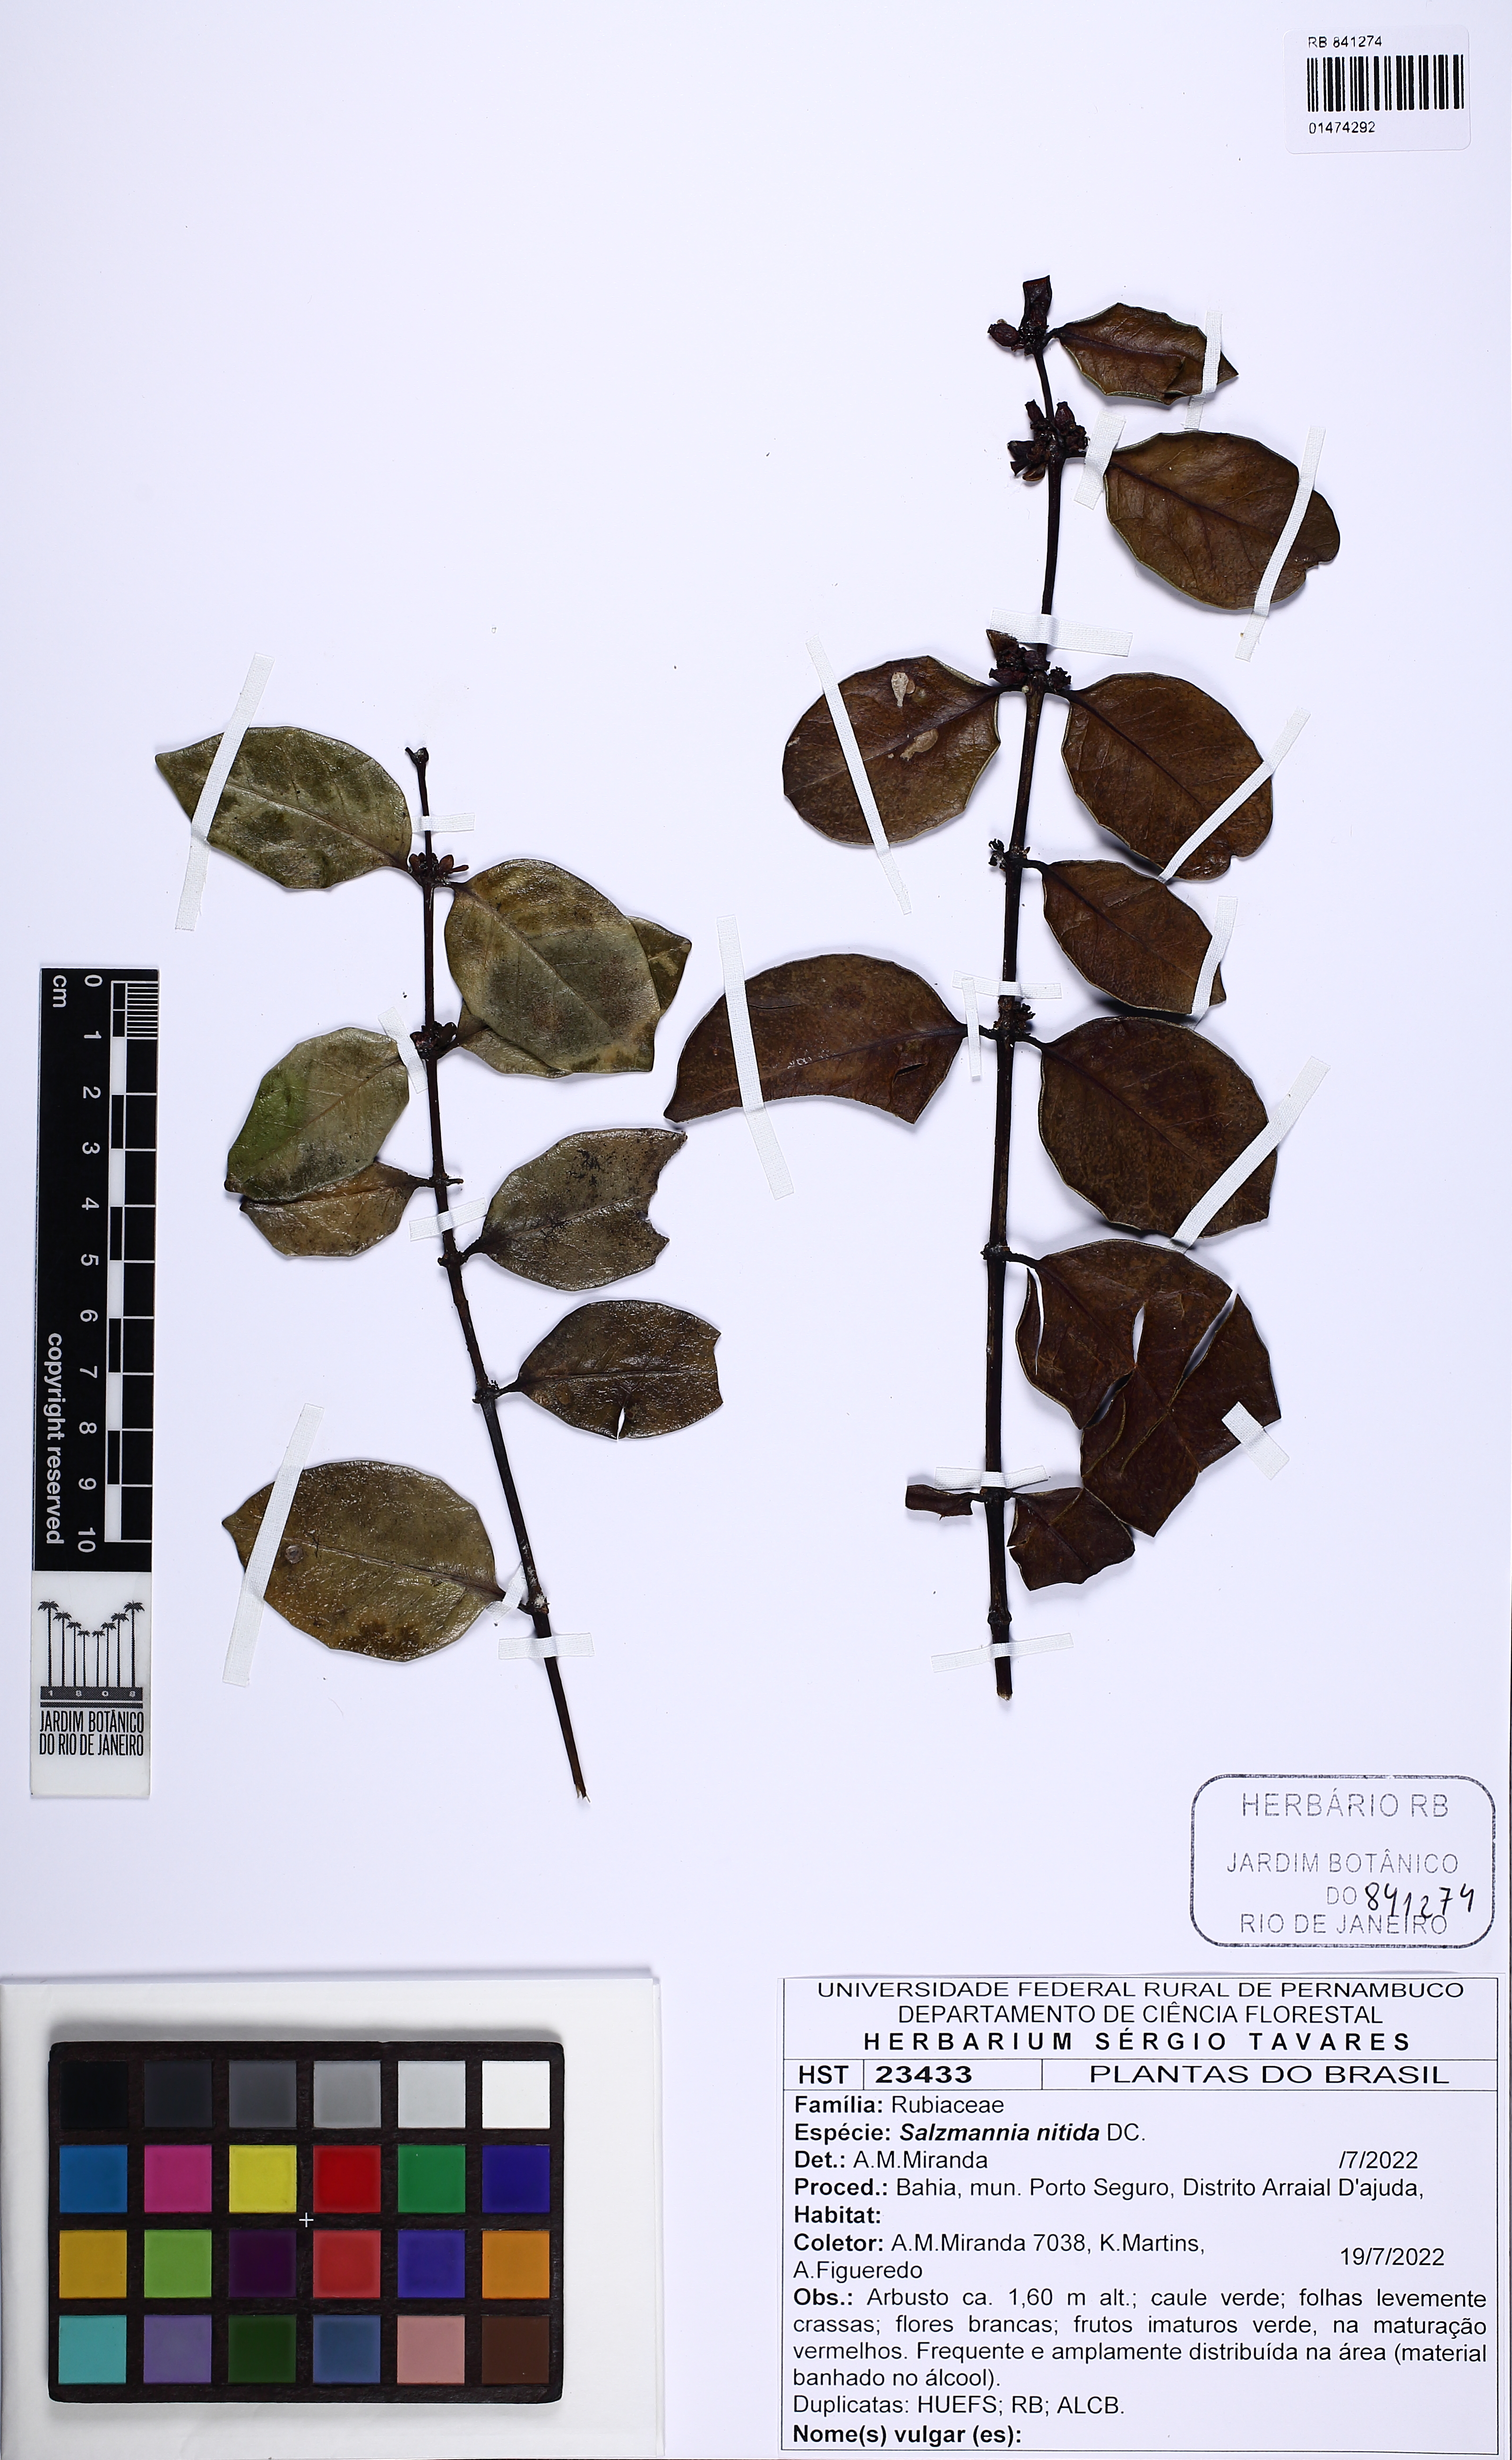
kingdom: Plantae
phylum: Tracheophyta
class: Magnoliopsida
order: Gentianales
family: Rubiaceae
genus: Salzmannia
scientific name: Salzmannia nitida
